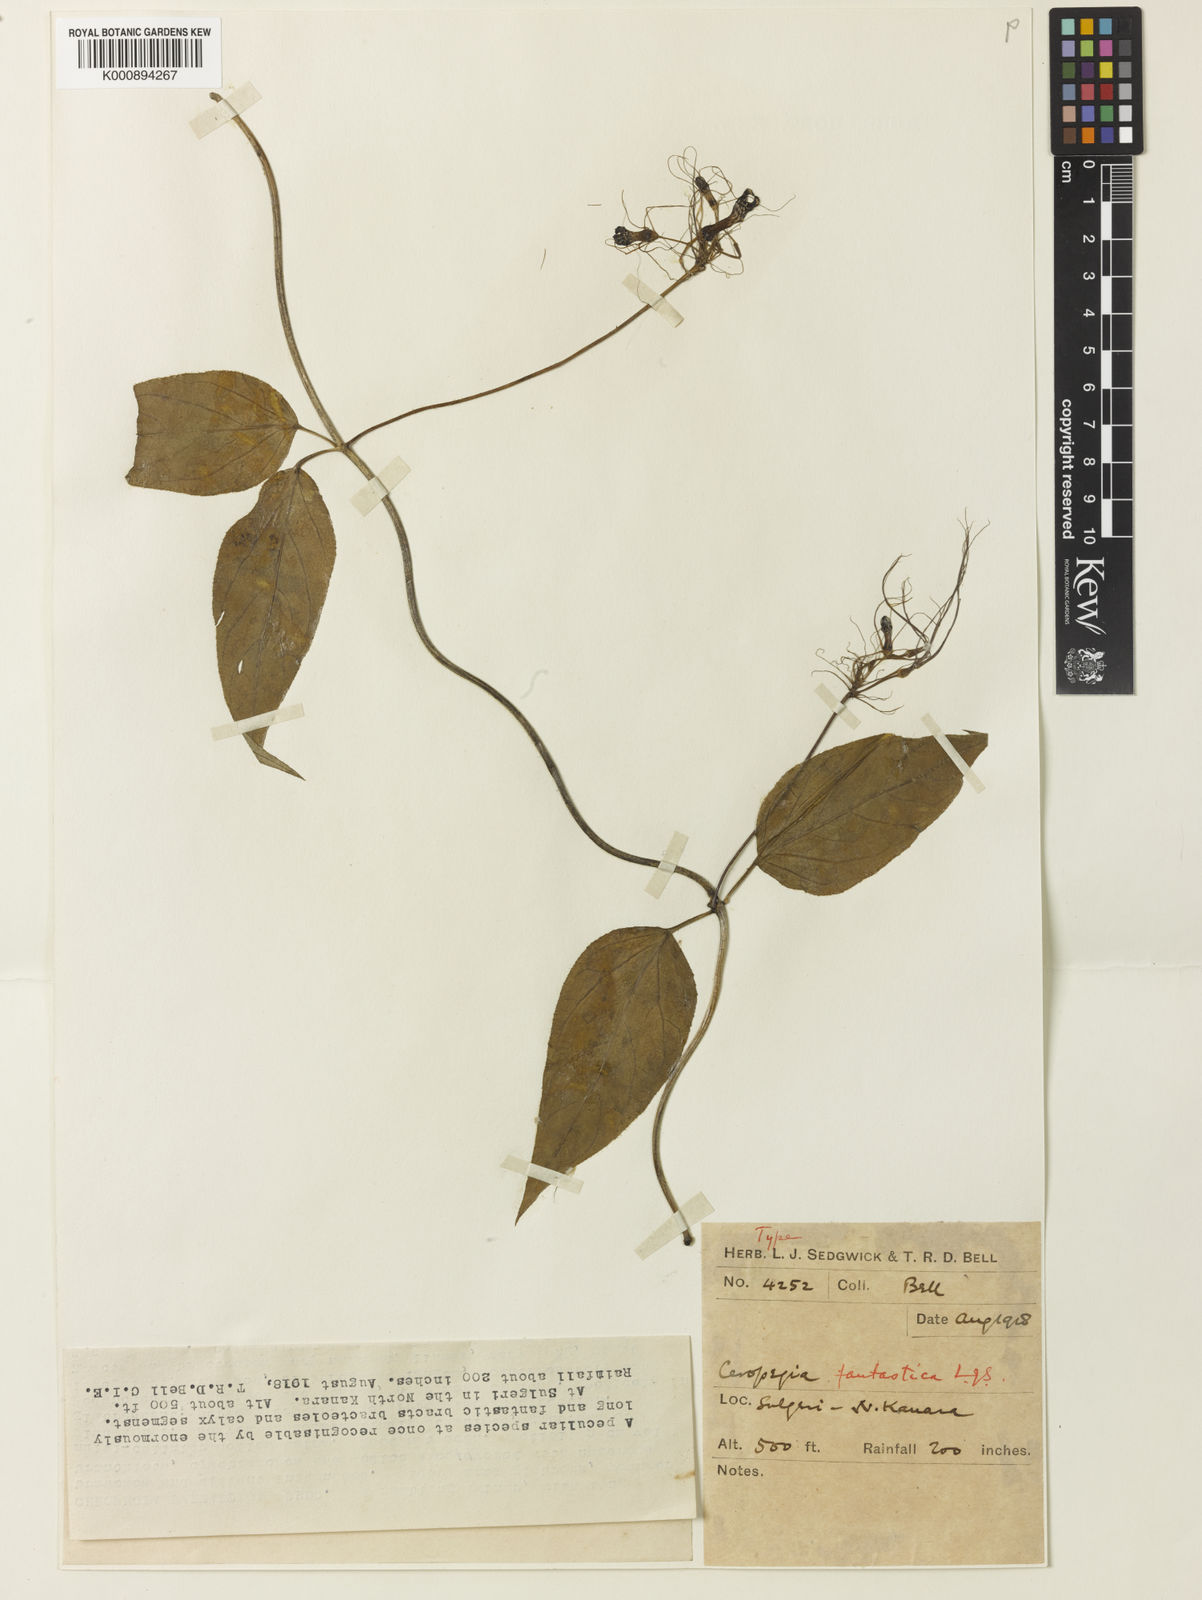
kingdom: Plantae
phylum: Tracheophyta
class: Magnoliopsida
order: Gentianales
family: Apocynaceae
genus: Ceropegia
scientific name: Ceropegia fantastica
